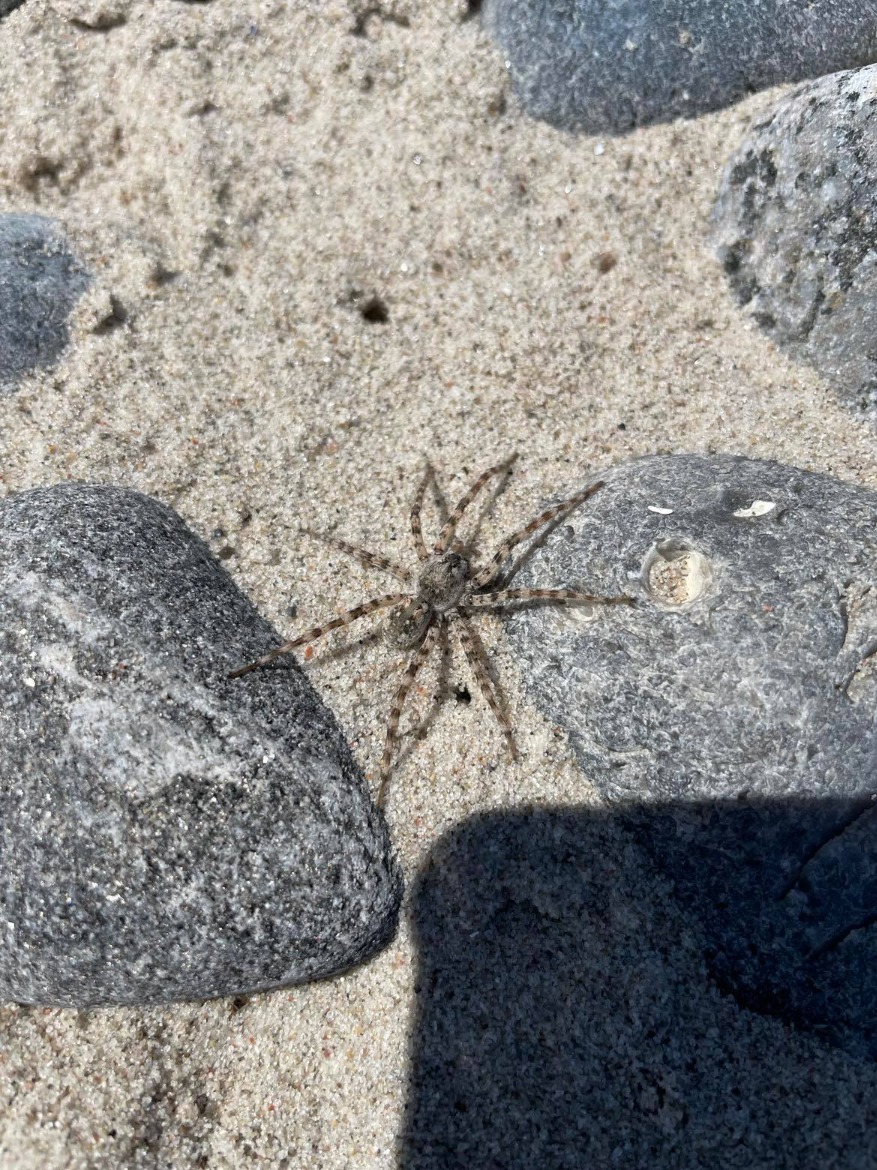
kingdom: Animalia
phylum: Arthropoda
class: Arachnida
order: Araneae
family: Lycosidae
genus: Arctosa
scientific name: Arctosa cinerea
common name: Sandgraveedderkop
